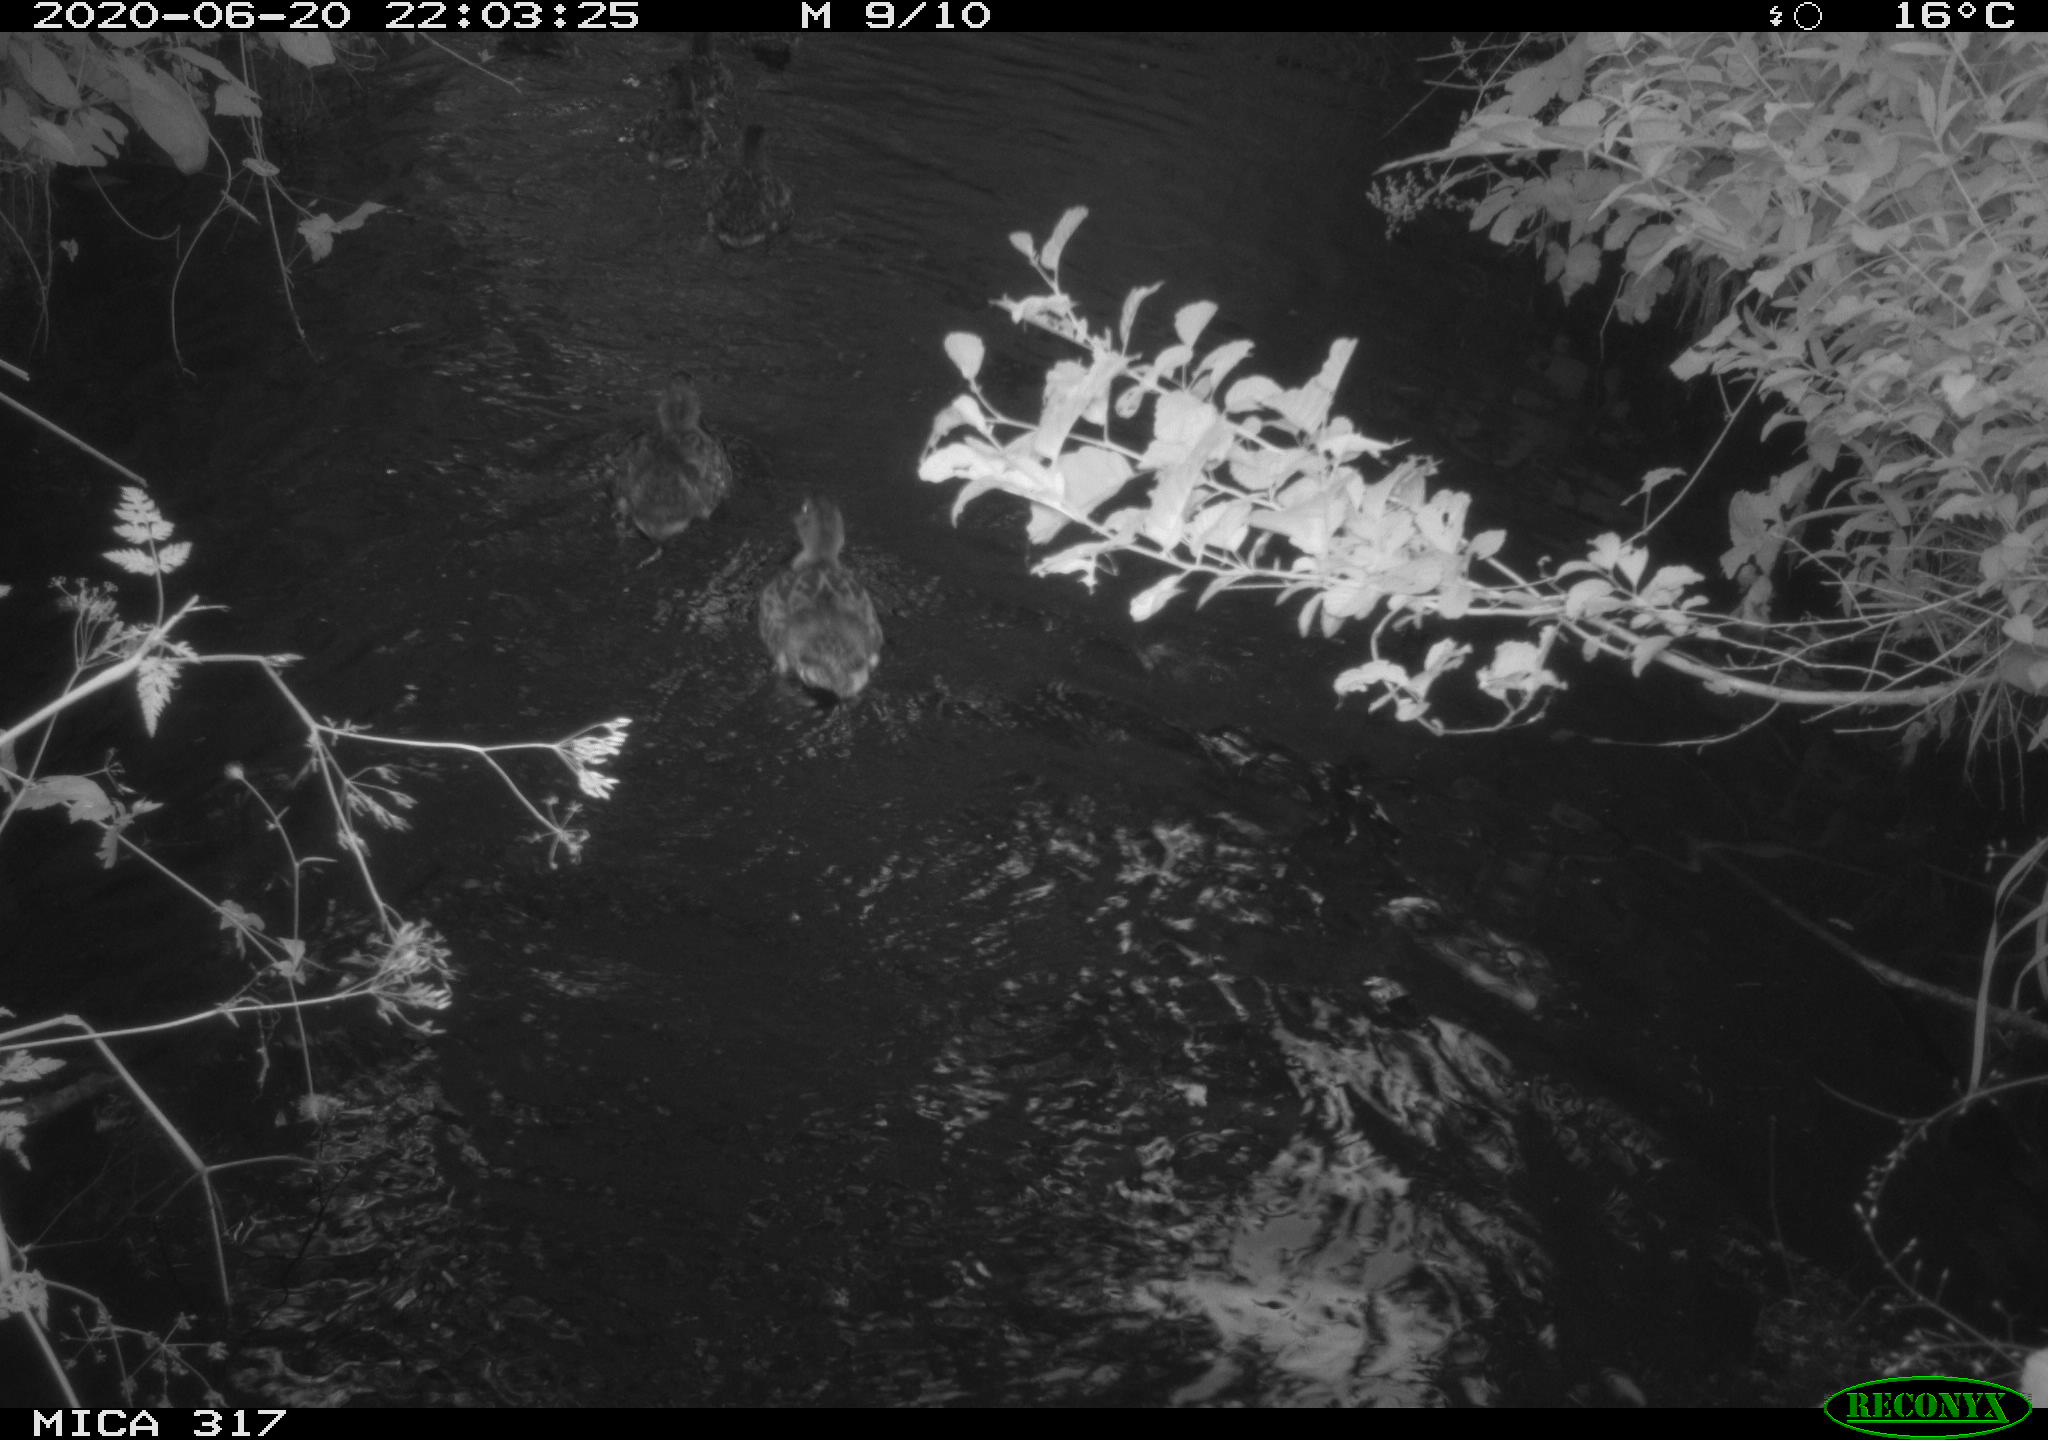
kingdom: Animalia
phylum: Chordata
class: Aves
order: Anseriformes
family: Anatidae
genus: Anas
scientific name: Anas platyrhynchos
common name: Mallard
